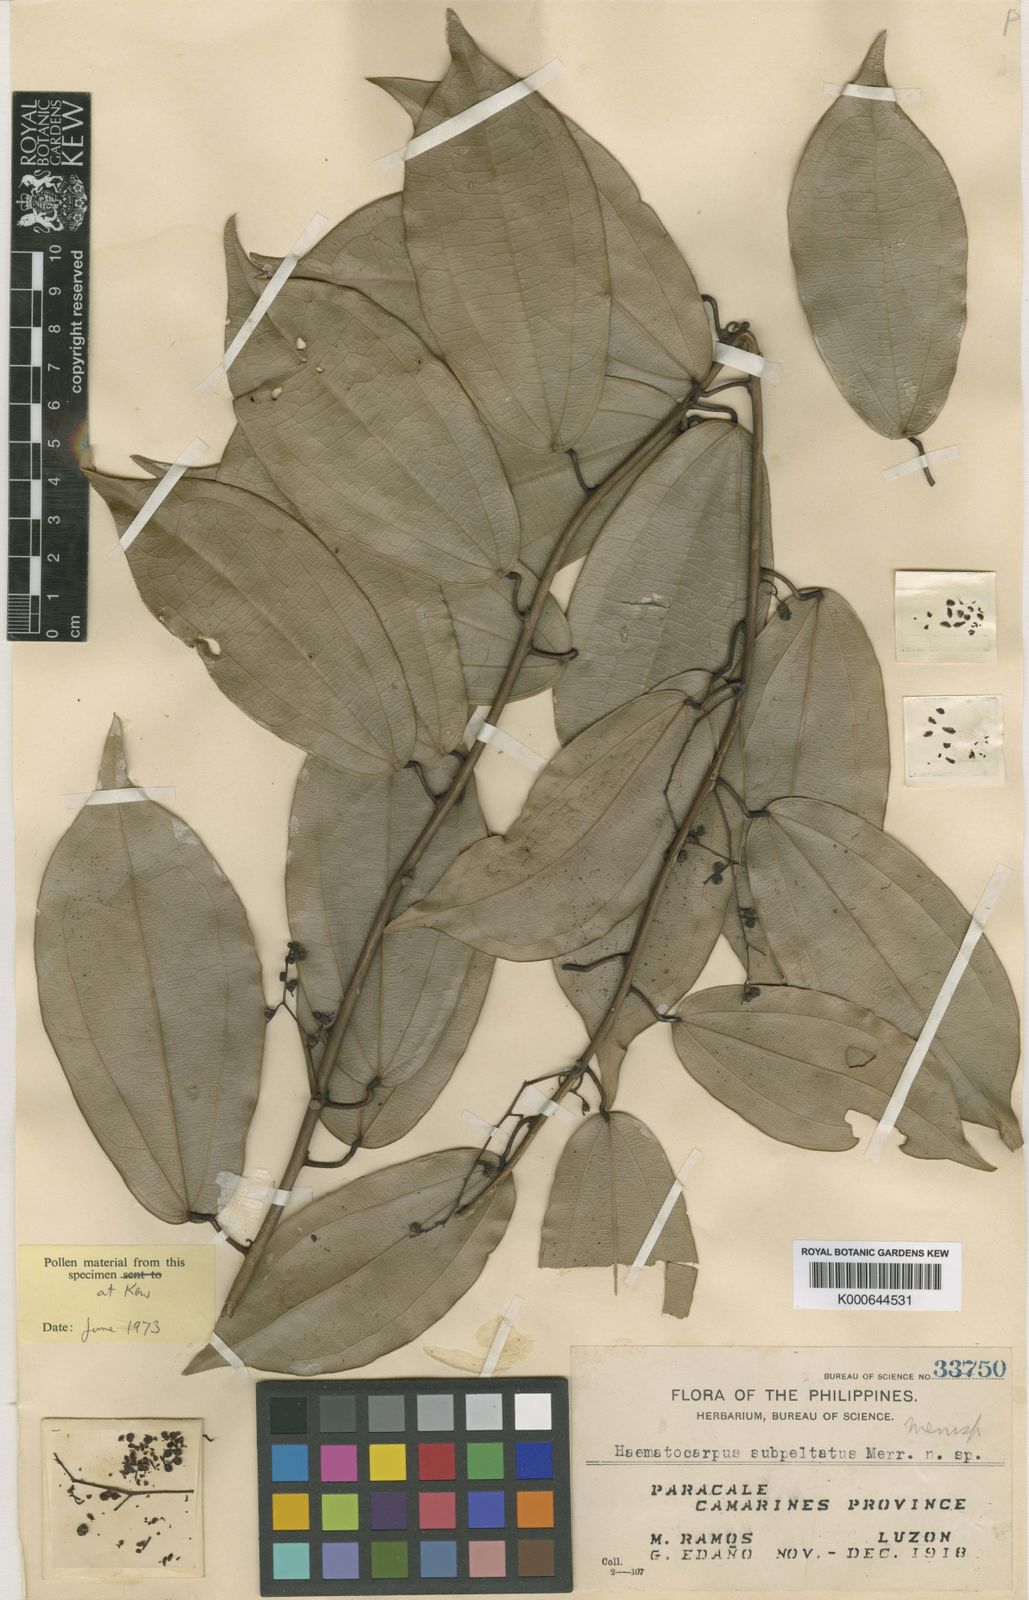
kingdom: Plantae
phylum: Tracheophyta
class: Magnoliopsida
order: Ranunculales
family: Menispermaceae
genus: Haematocarpus
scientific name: Haematocarpus subpeltatus
